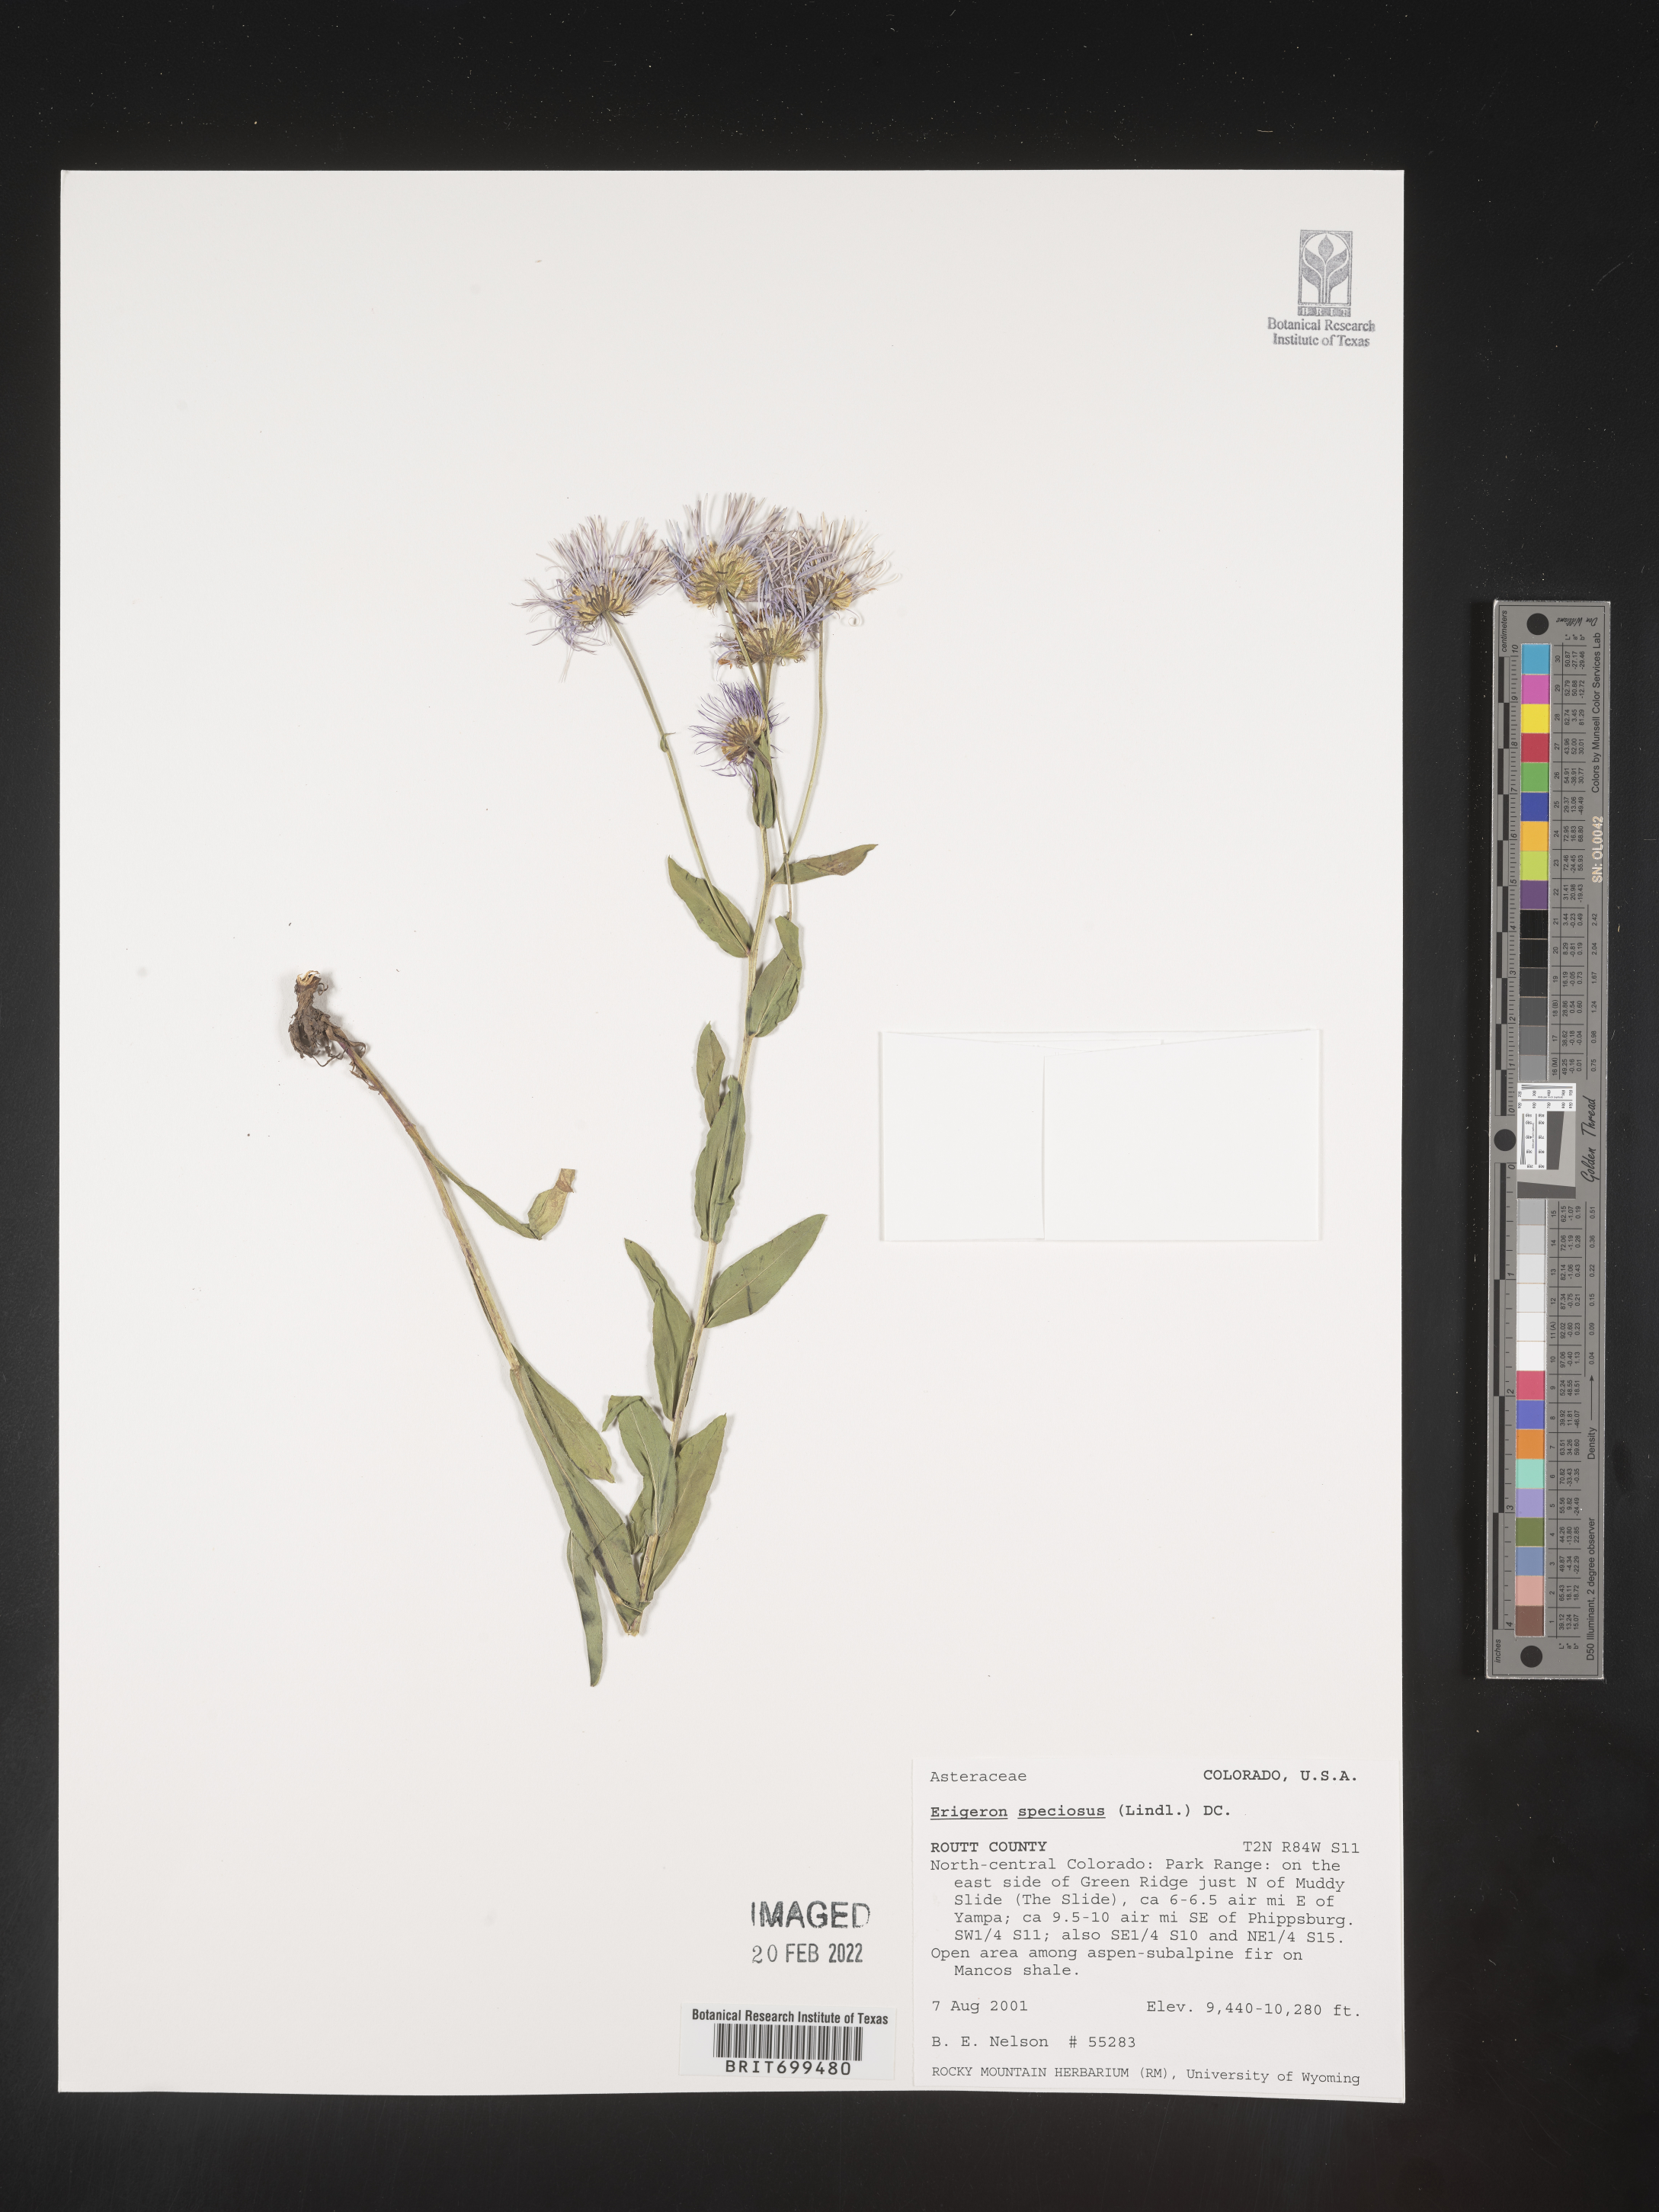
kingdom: Plantae
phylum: Tracheophyta
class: Magnoliopsida
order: Asterales
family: Asteraceae
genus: Erigeron
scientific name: Erigeron speciosus
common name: Aspen fleabane
